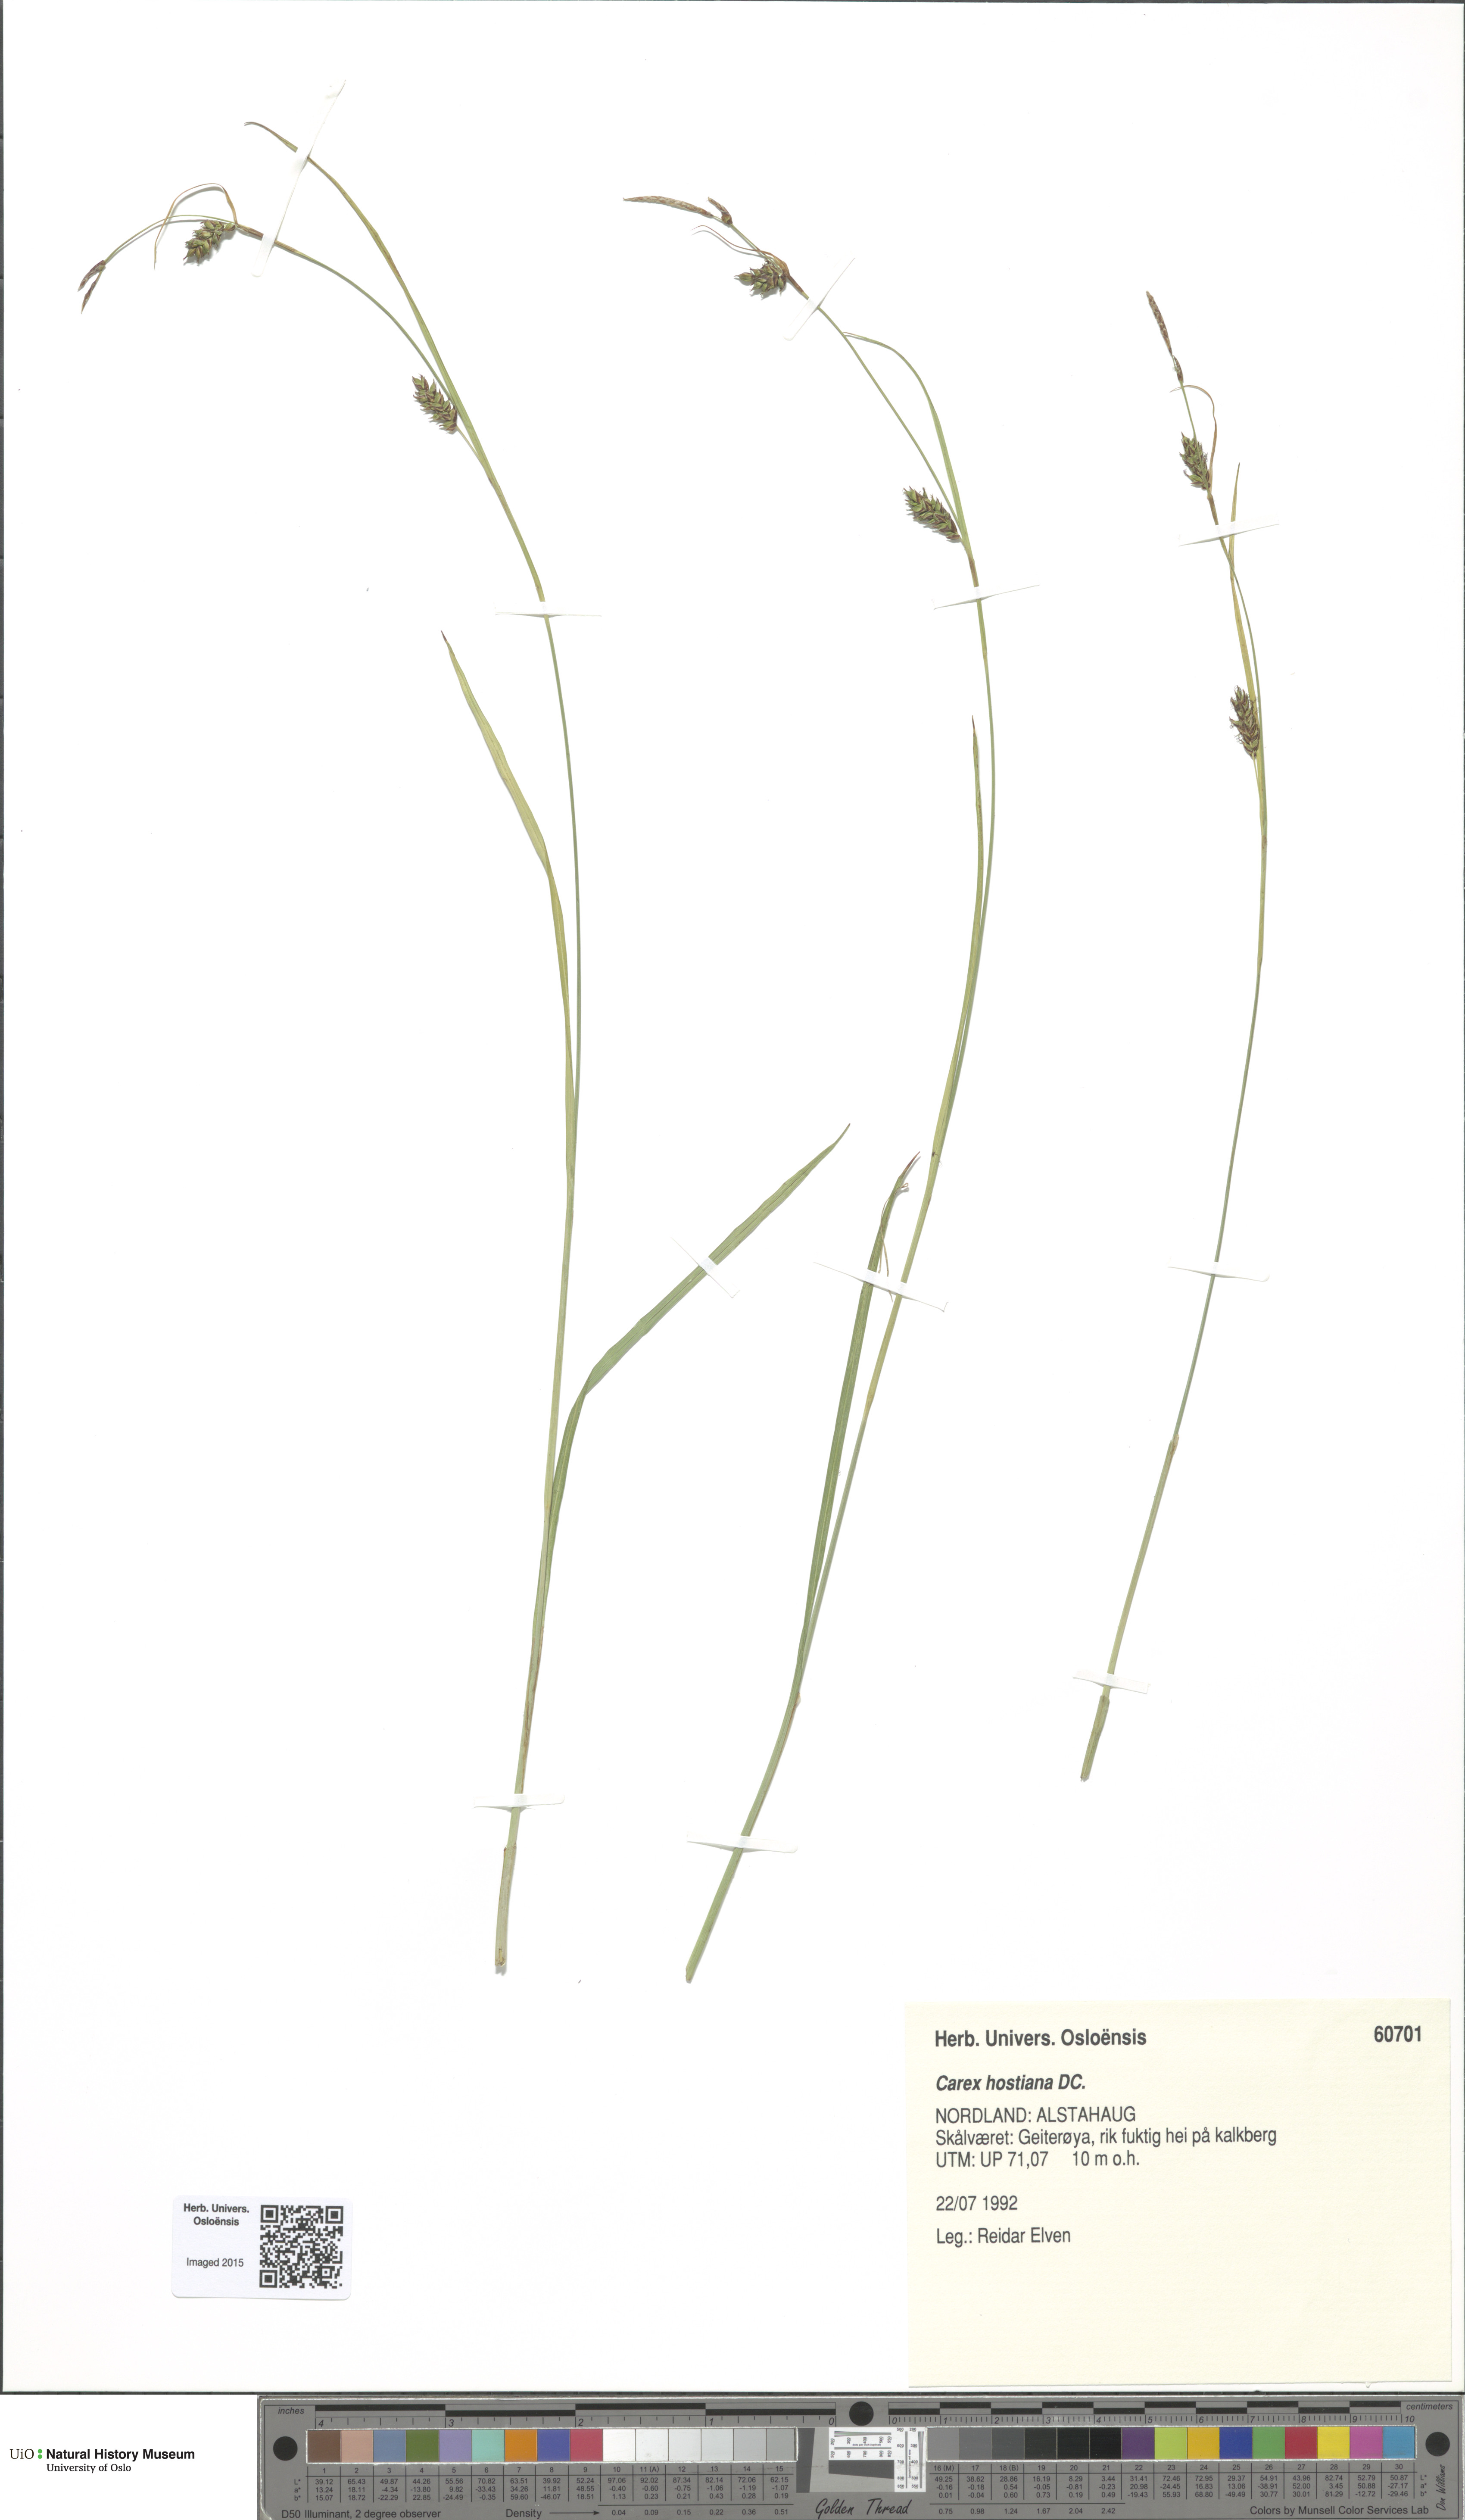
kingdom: Plantae
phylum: Tracheophyta
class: Liliopsida
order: Poales
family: Cyperaceae
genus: Carex
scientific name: Carex hostiana
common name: Tawny sedge
